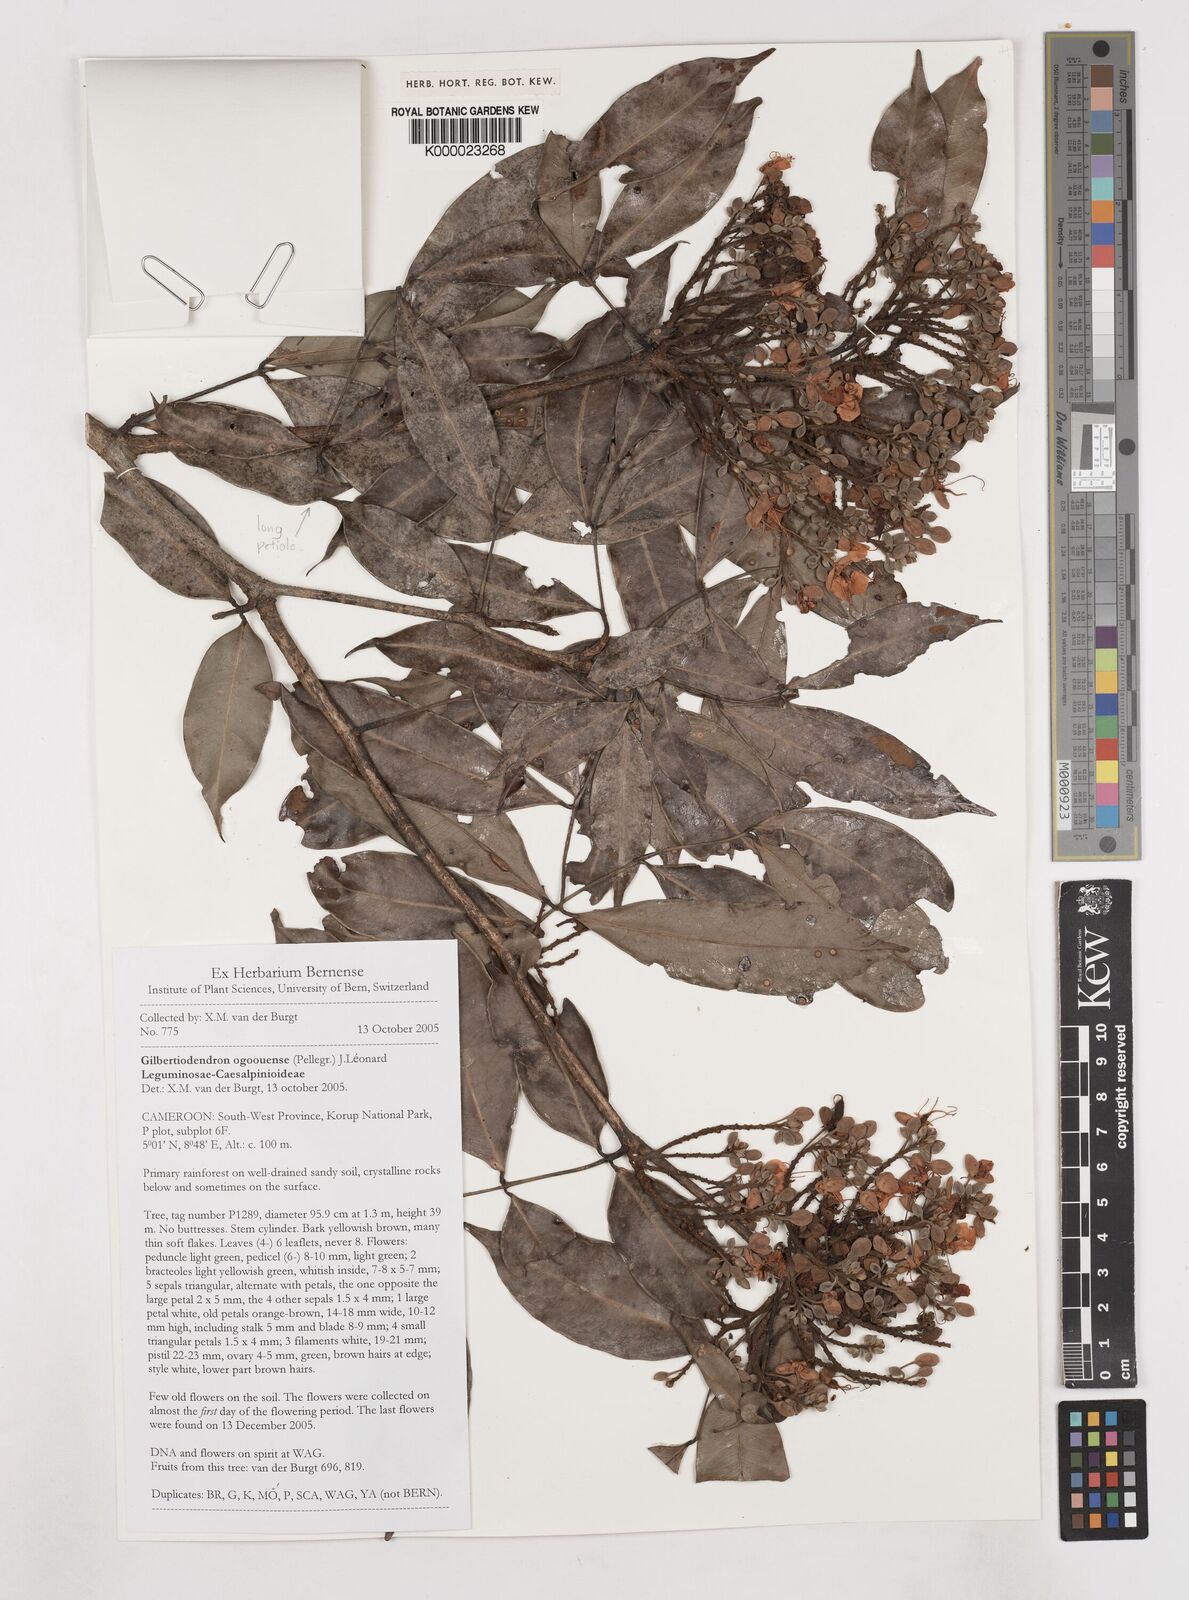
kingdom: Plantae
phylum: Tracheophyta
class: Magnoliopsida
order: Fabales
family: Fabaceae
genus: Gilbertiodendron
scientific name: Gilbertiodendron
